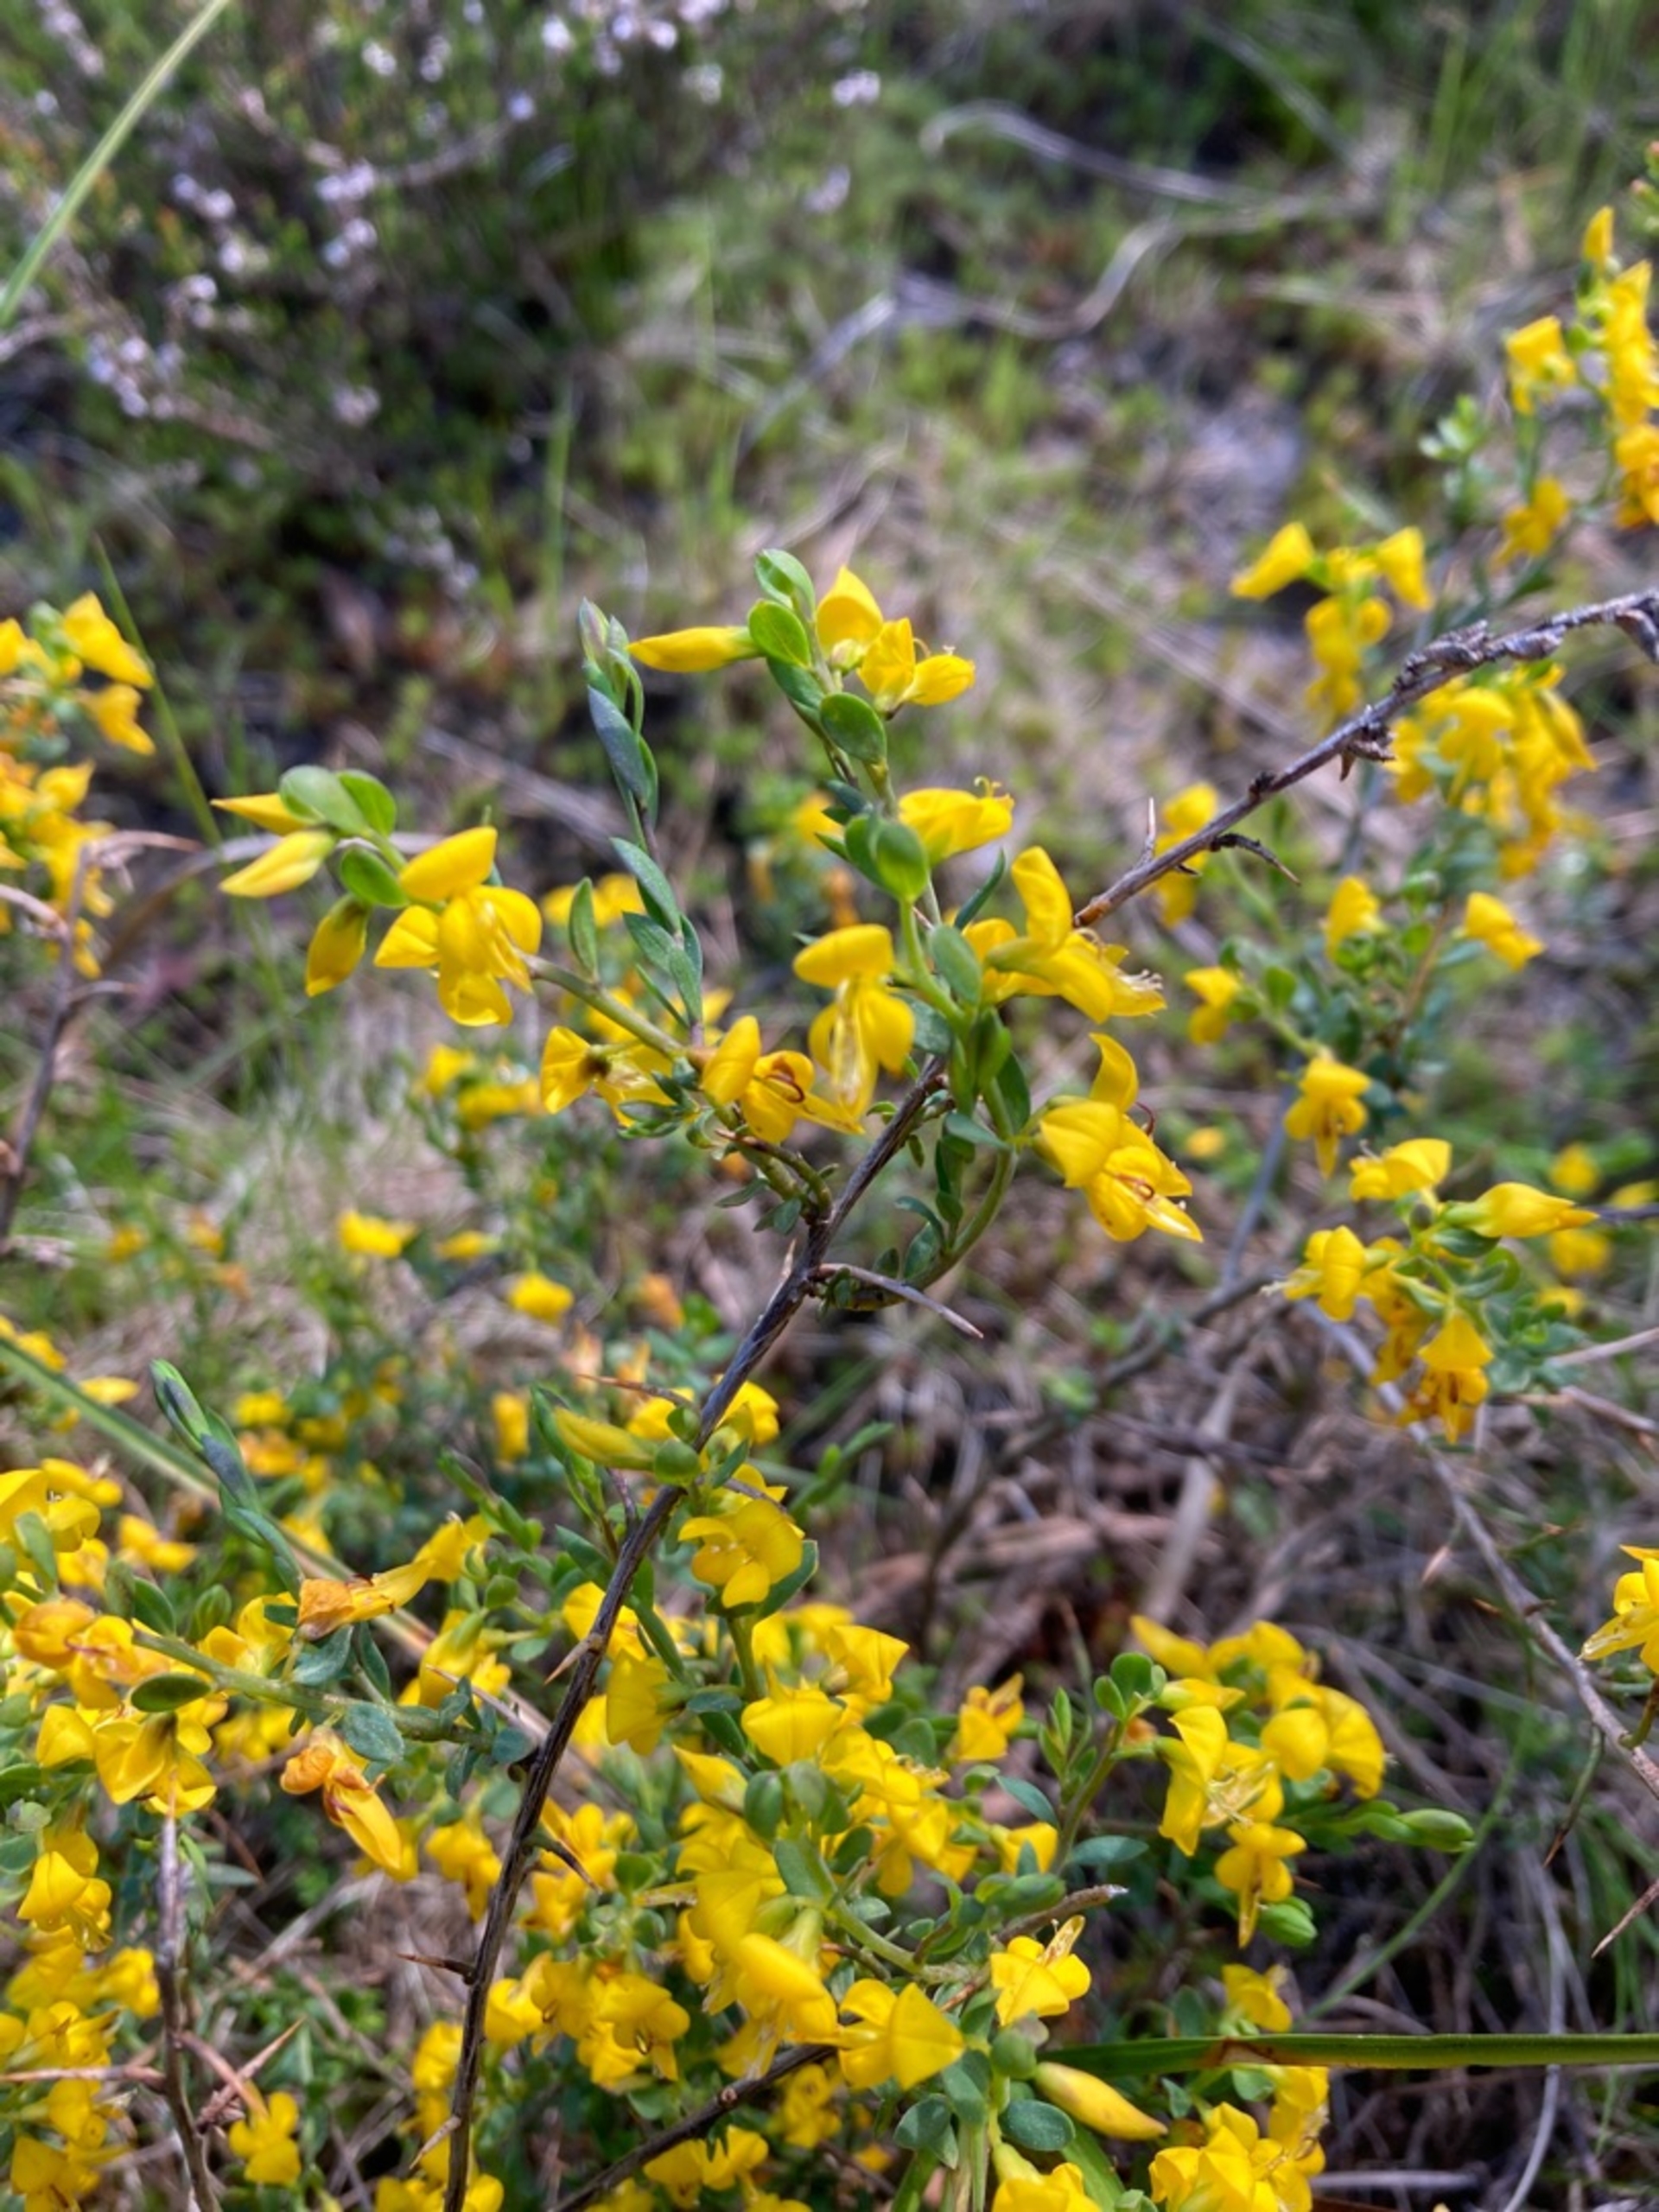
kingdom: Plantae
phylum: Tracheophyta
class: Magnoliopsida
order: Fabales
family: Fabaceae
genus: Genista
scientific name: Genista anglica
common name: Engelsk visse
